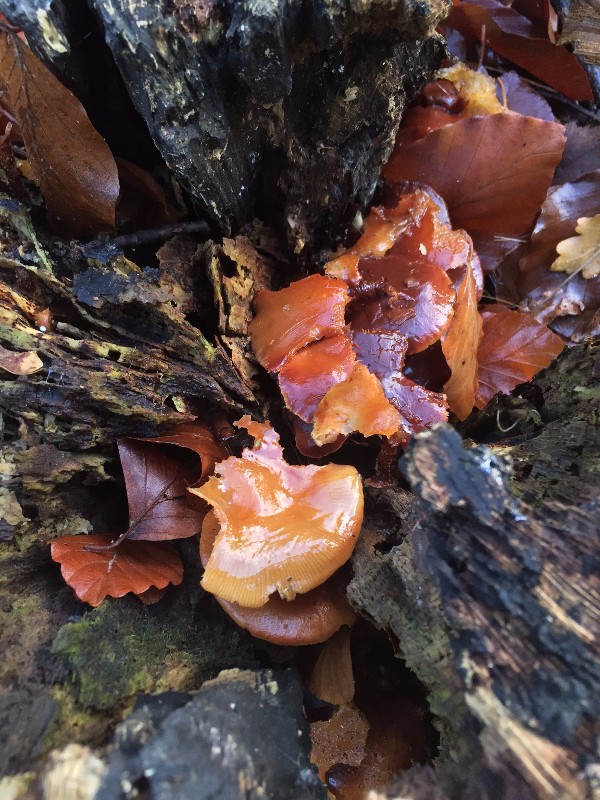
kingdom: Fungi
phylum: Basidiomycota
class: Agaricomycetes
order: Agaricales
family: Strophariaceae
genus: Kuehneromyces
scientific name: Kuehneromyces mutabilis
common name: foranderlig skælhat
